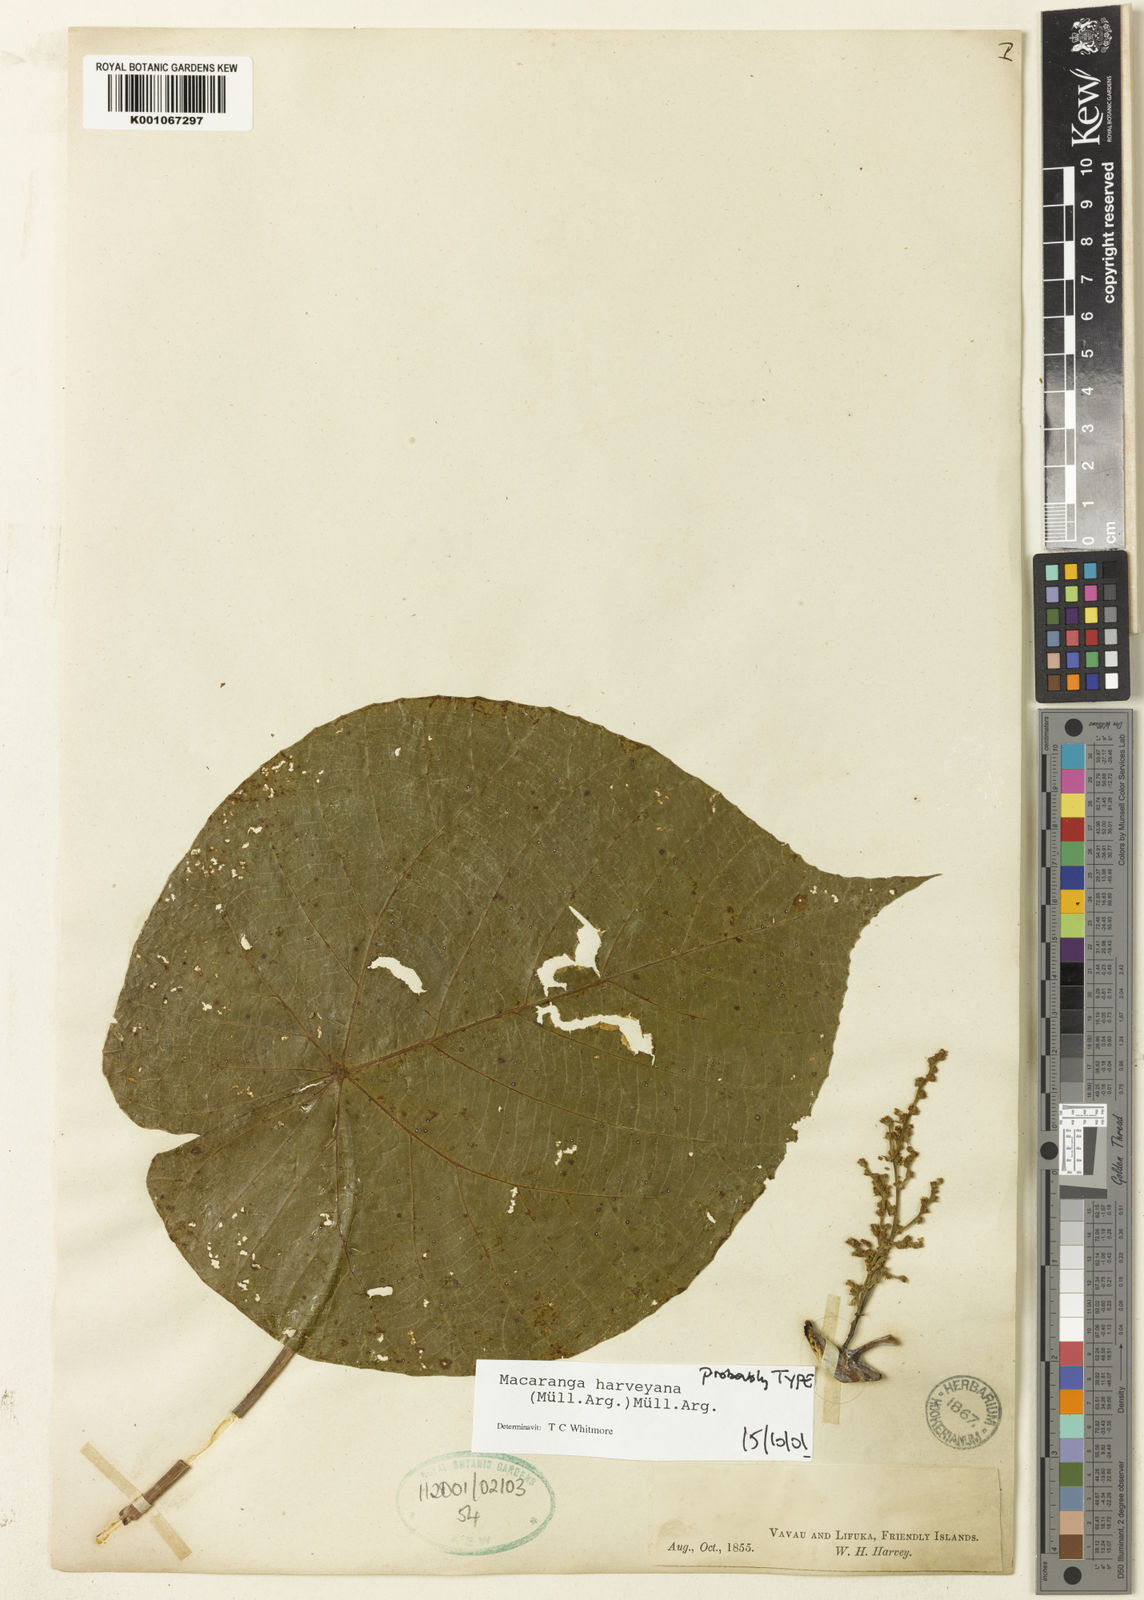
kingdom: Plantae
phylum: Tracheophyta
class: Magnoliopsida
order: Malpighiales
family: Euphorbiaceae
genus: Macaranga
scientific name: Macaranga
